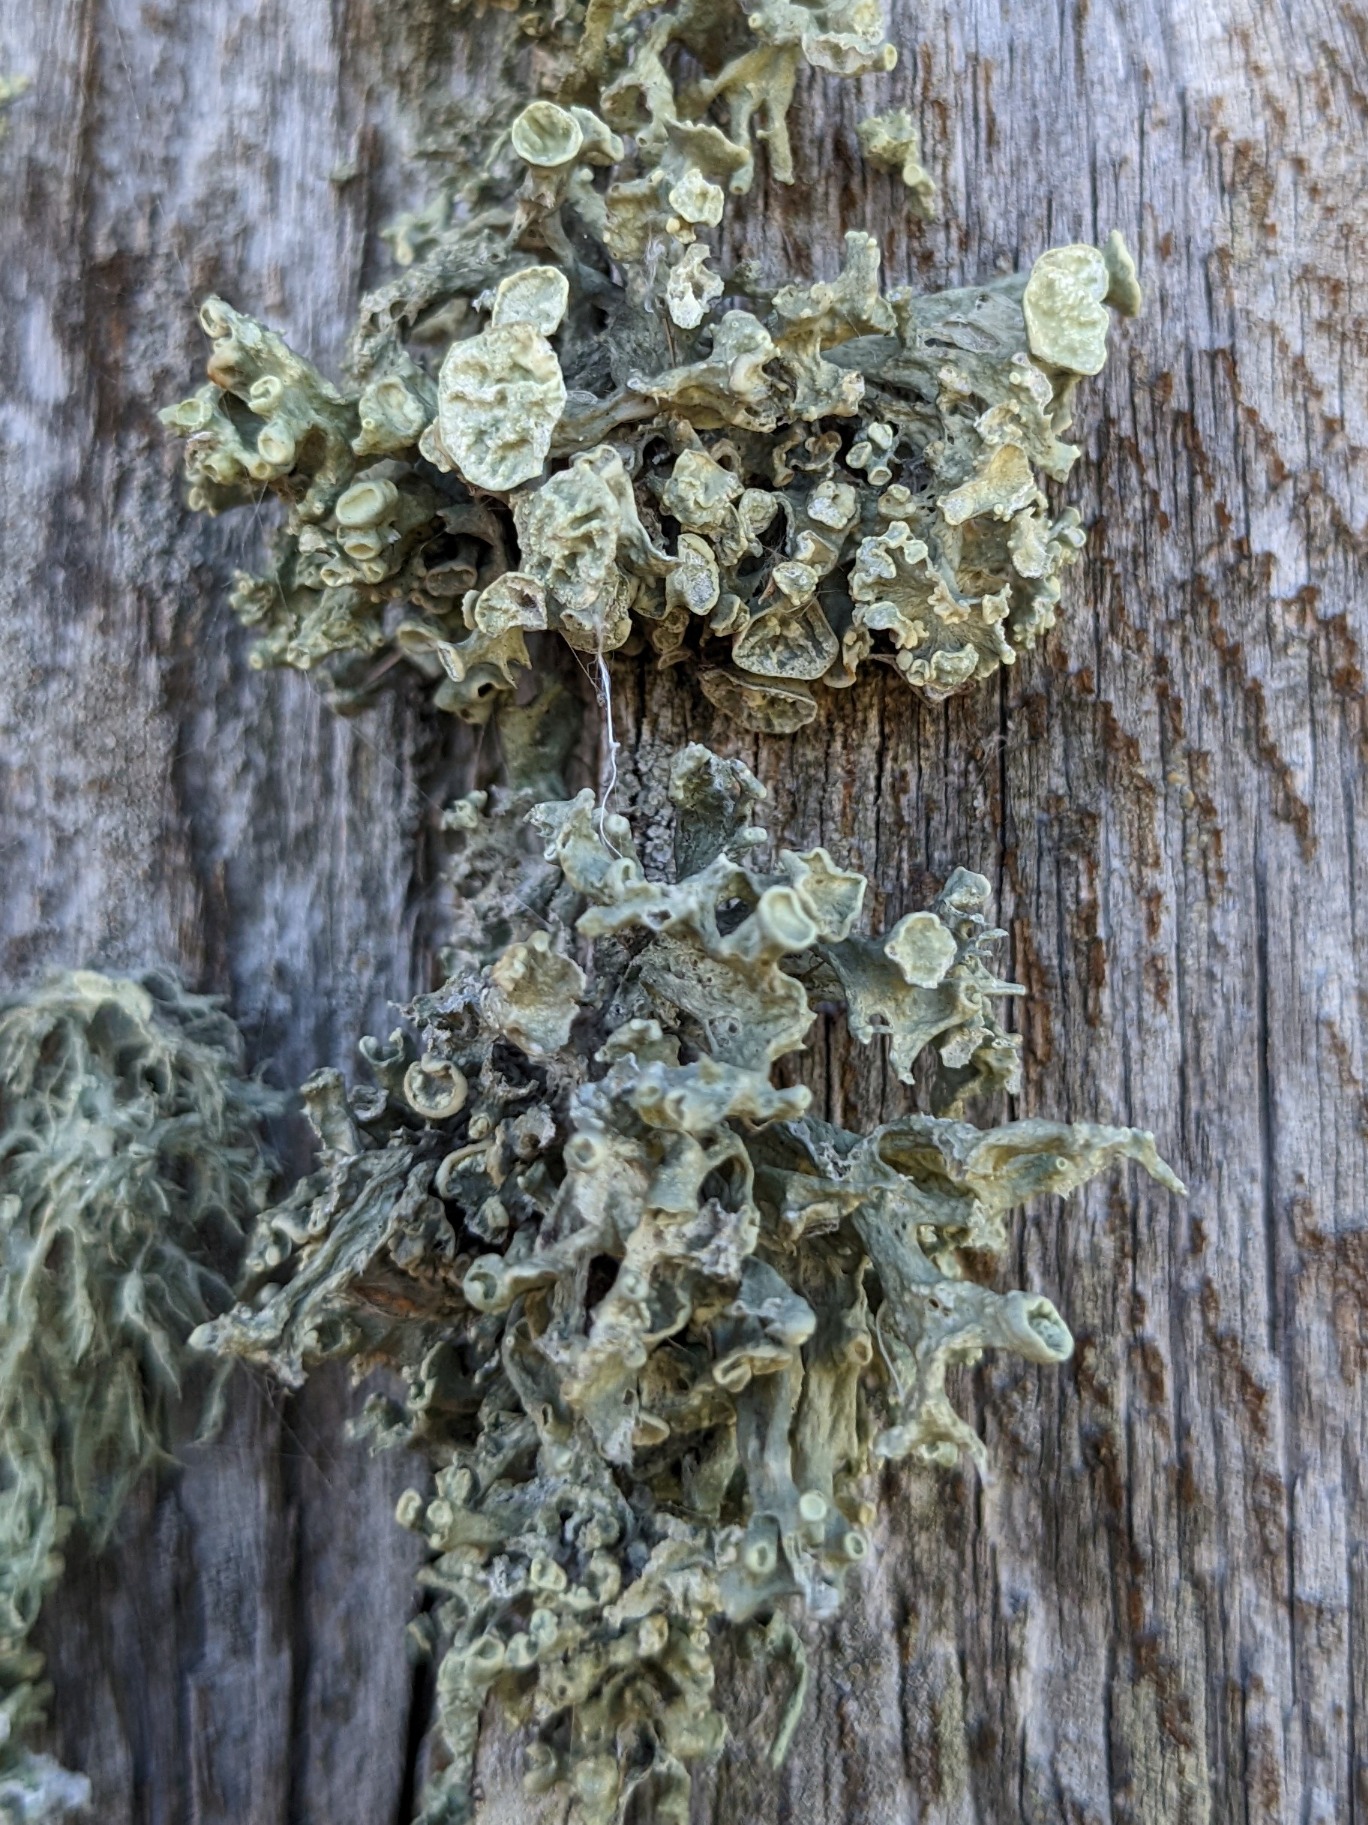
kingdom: Fungi
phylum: Ascomycota
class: Lecanoromycetes
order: Lecanorales
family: Ramalinaceae
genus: Ramalina
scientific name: Ramalina fastigiata
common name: Tue-grenlav
